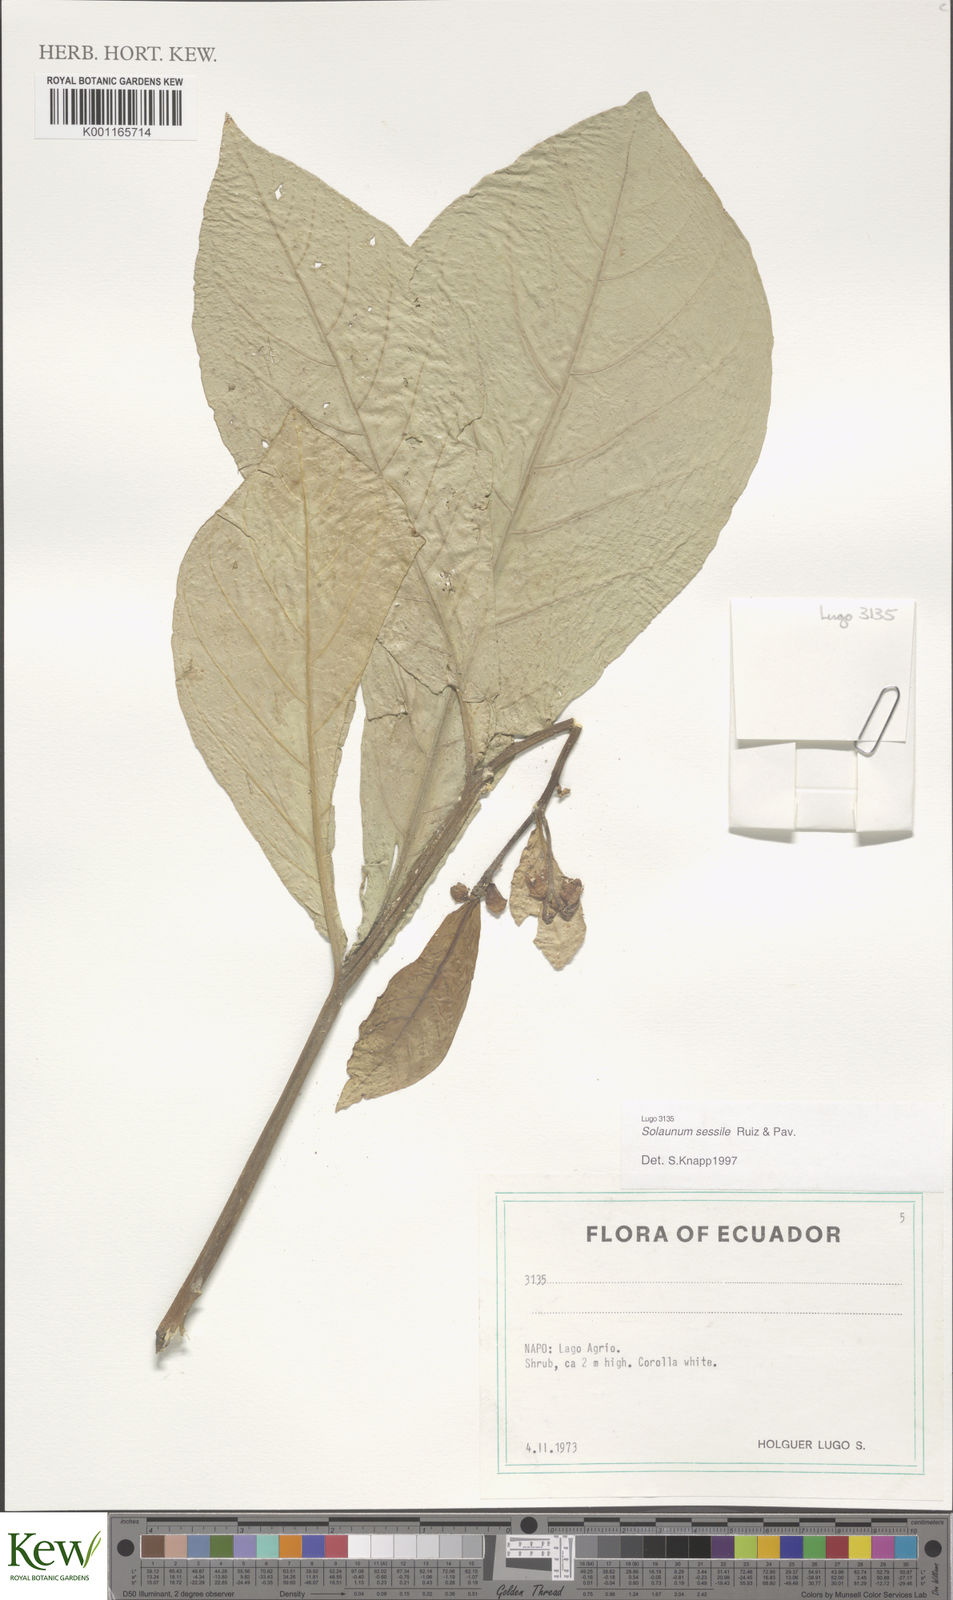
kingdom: Plantae
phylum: Tracheophyta
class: Magnoliopsida
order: Solanales
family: Solanaceae
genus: Solanum
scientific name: Solanum sessile
